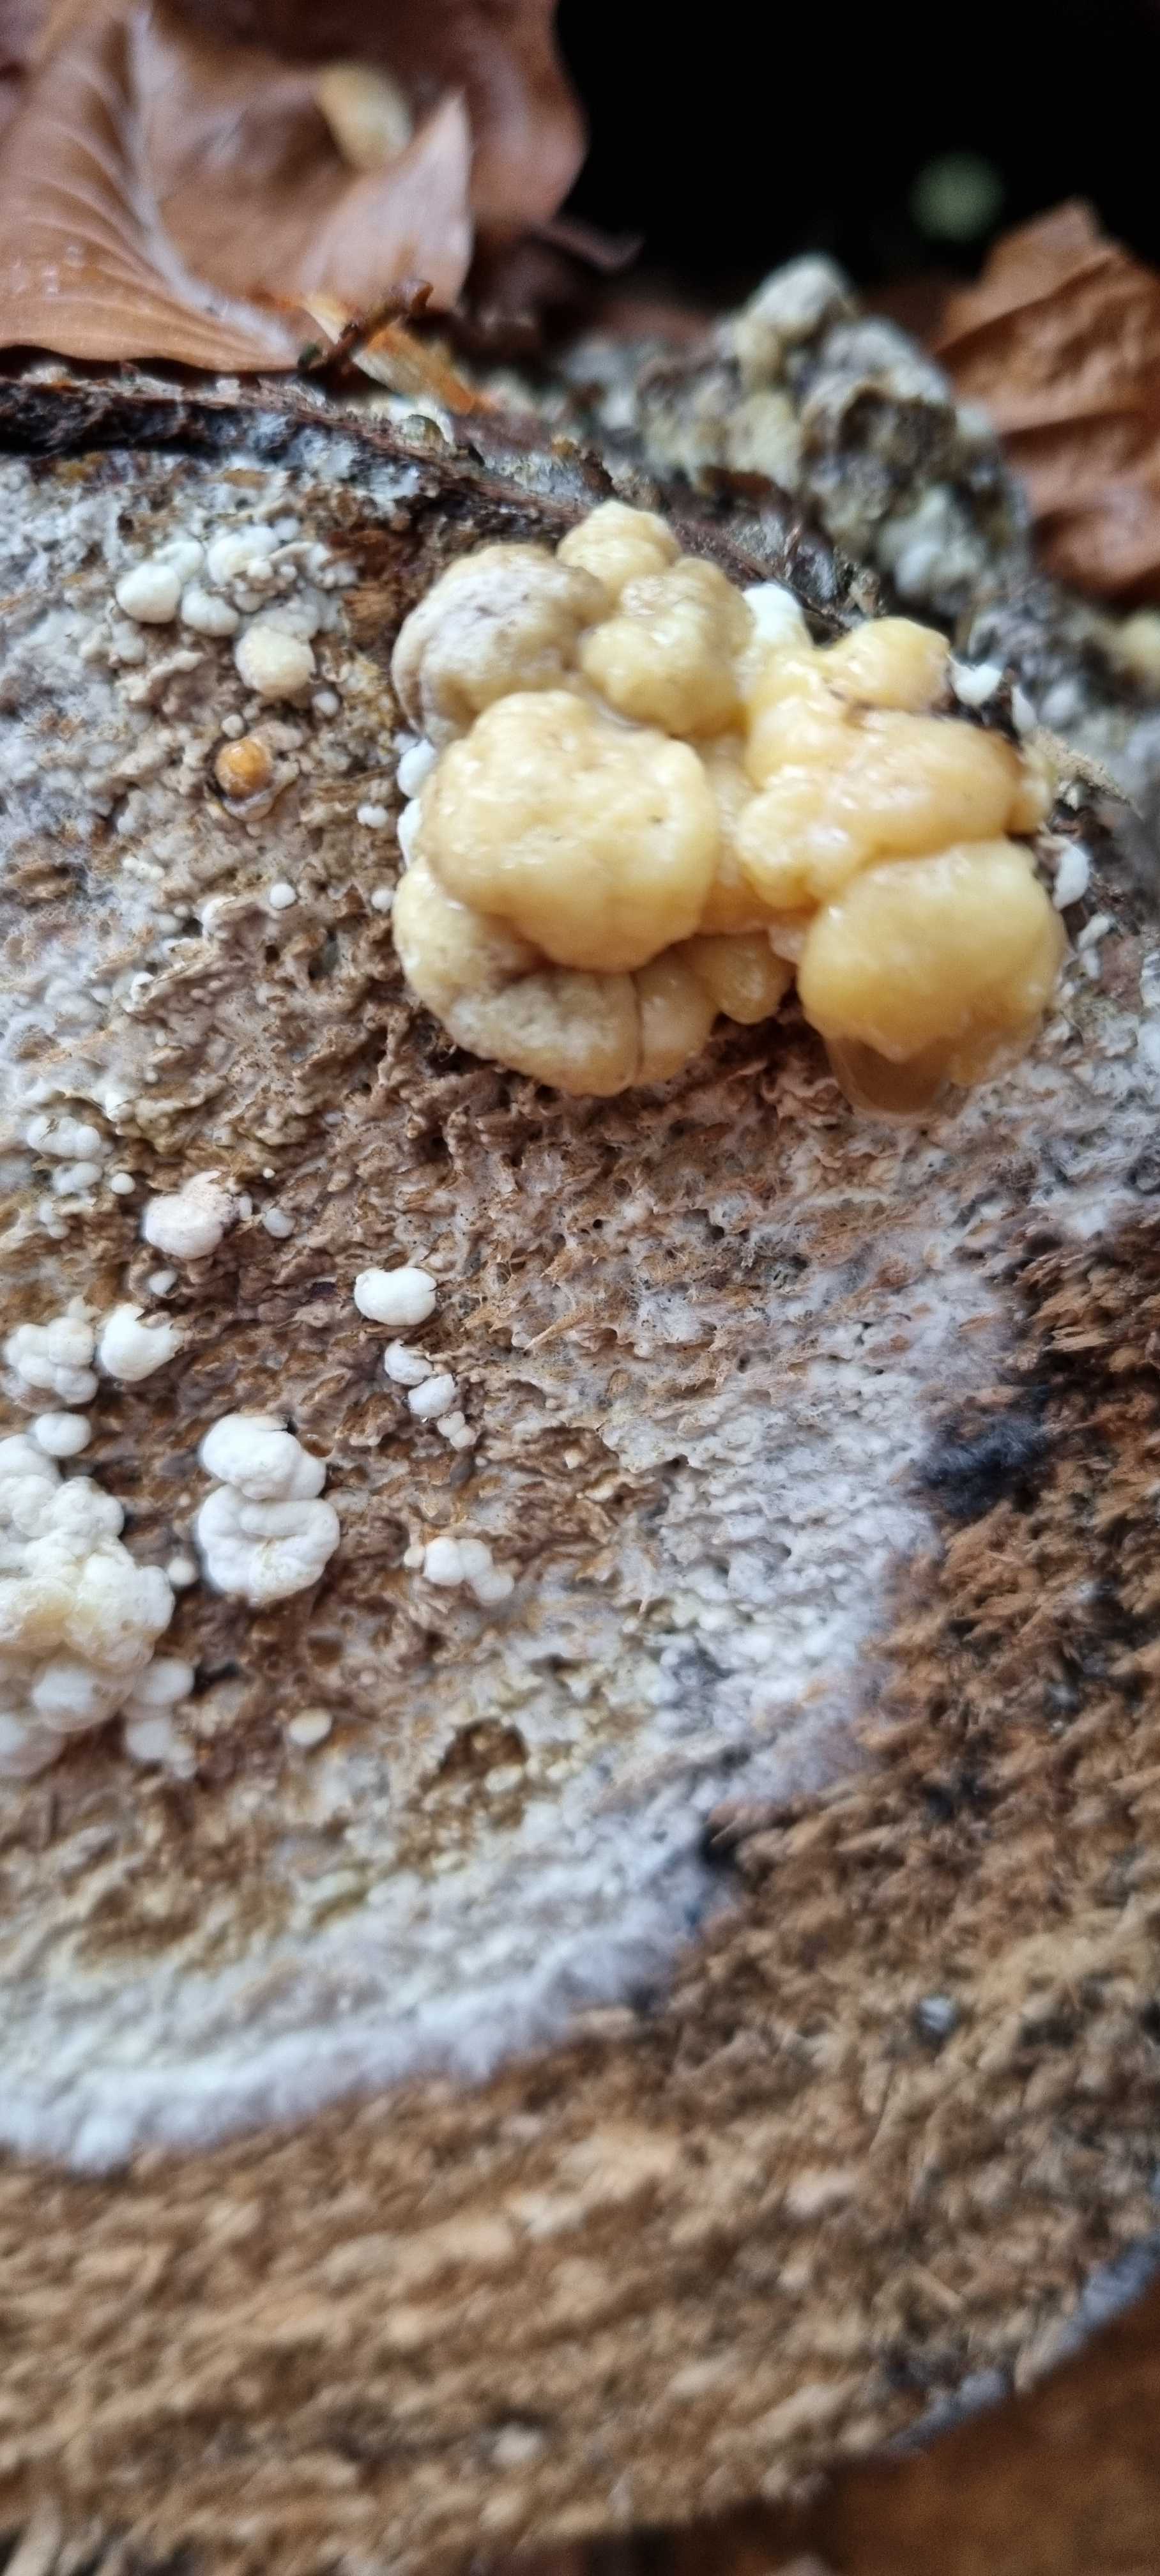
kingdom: Fungi
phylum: Ascomycota
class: Sordariomycetes
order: Xylariales
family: Hypoxylaceae
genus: Nodulisporium
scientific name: Nodulisporium cecidiogenes
